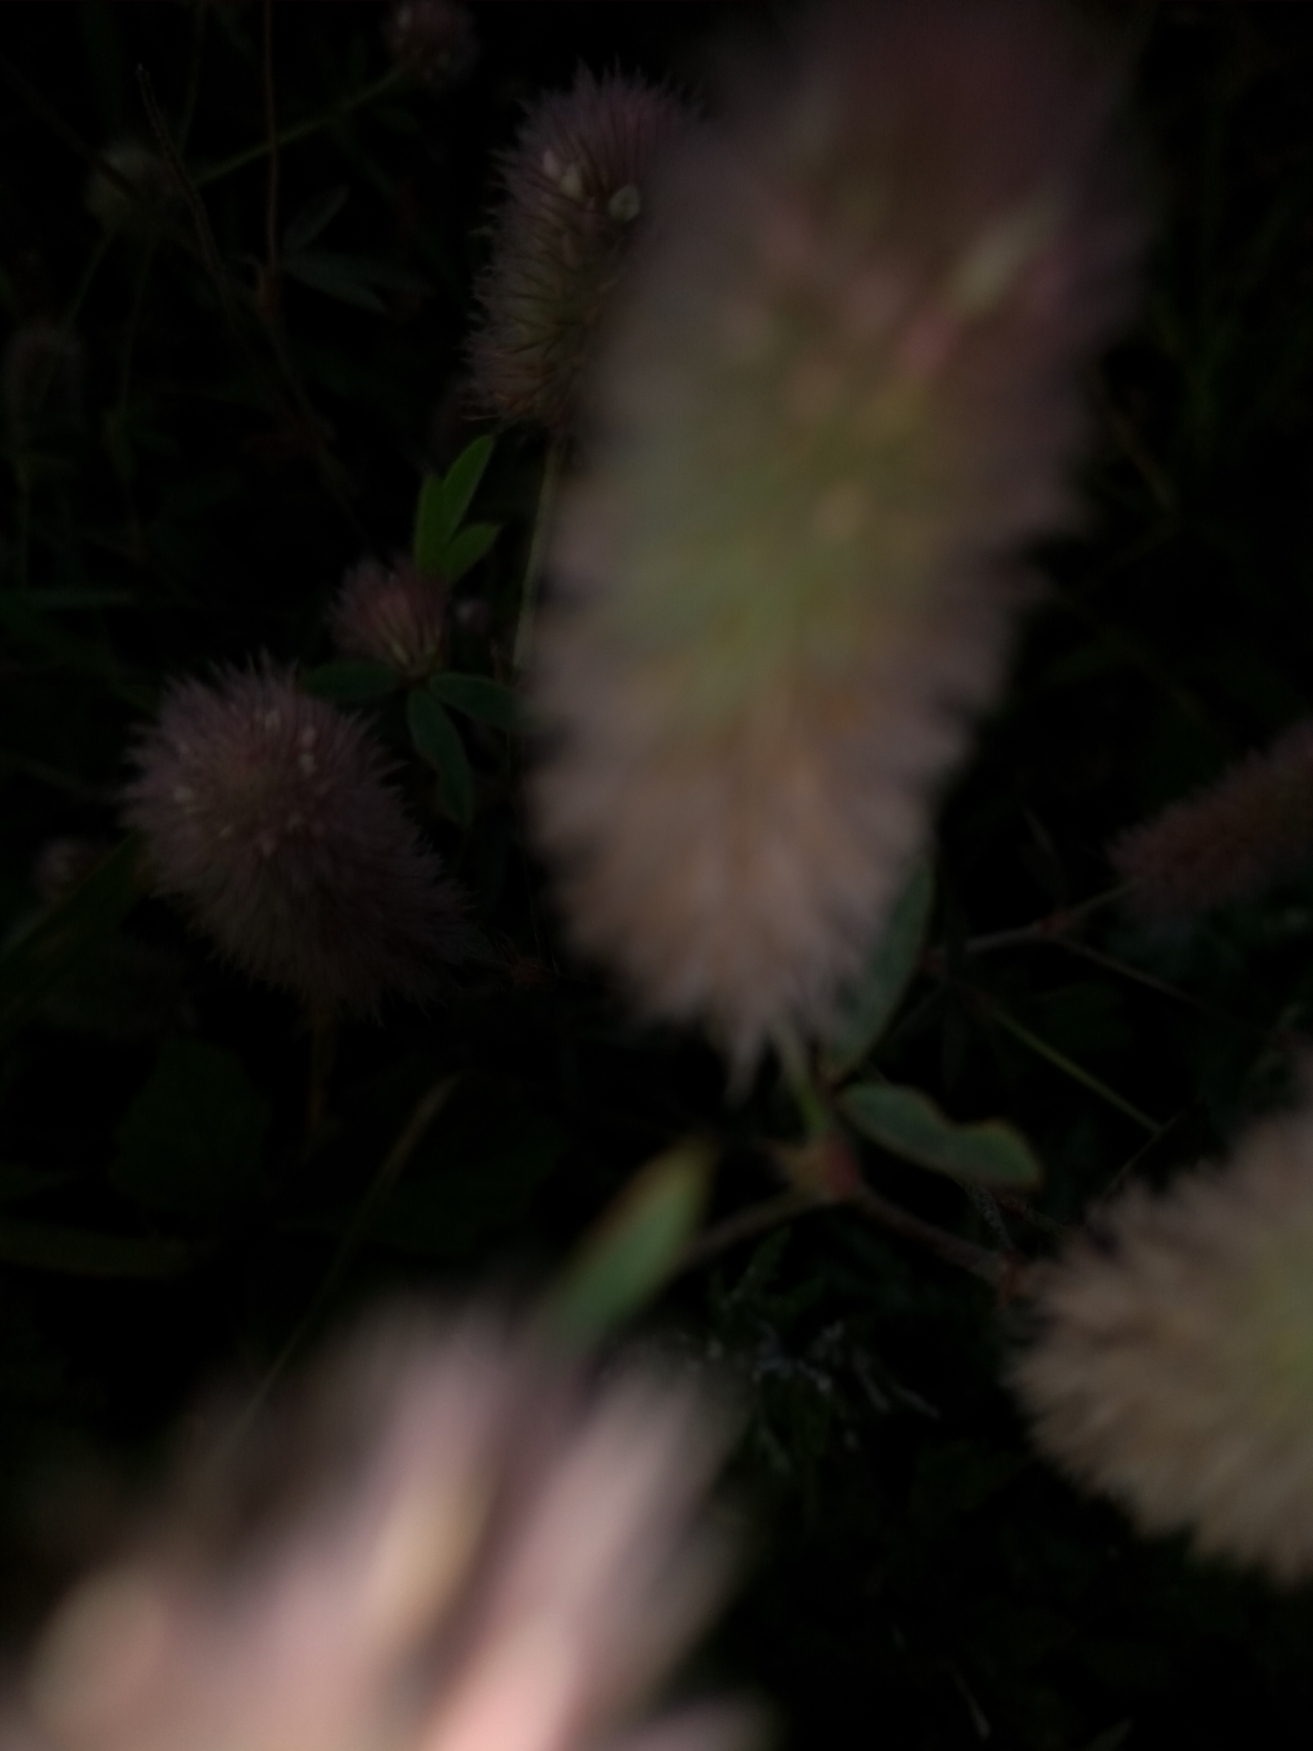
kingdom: Plantae
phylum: Tracheophyta
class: Magnoliopsida
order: Fabales
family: Fabaceae
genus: Trifolium
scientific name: Trifolium arvense
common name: Hare-kløver
